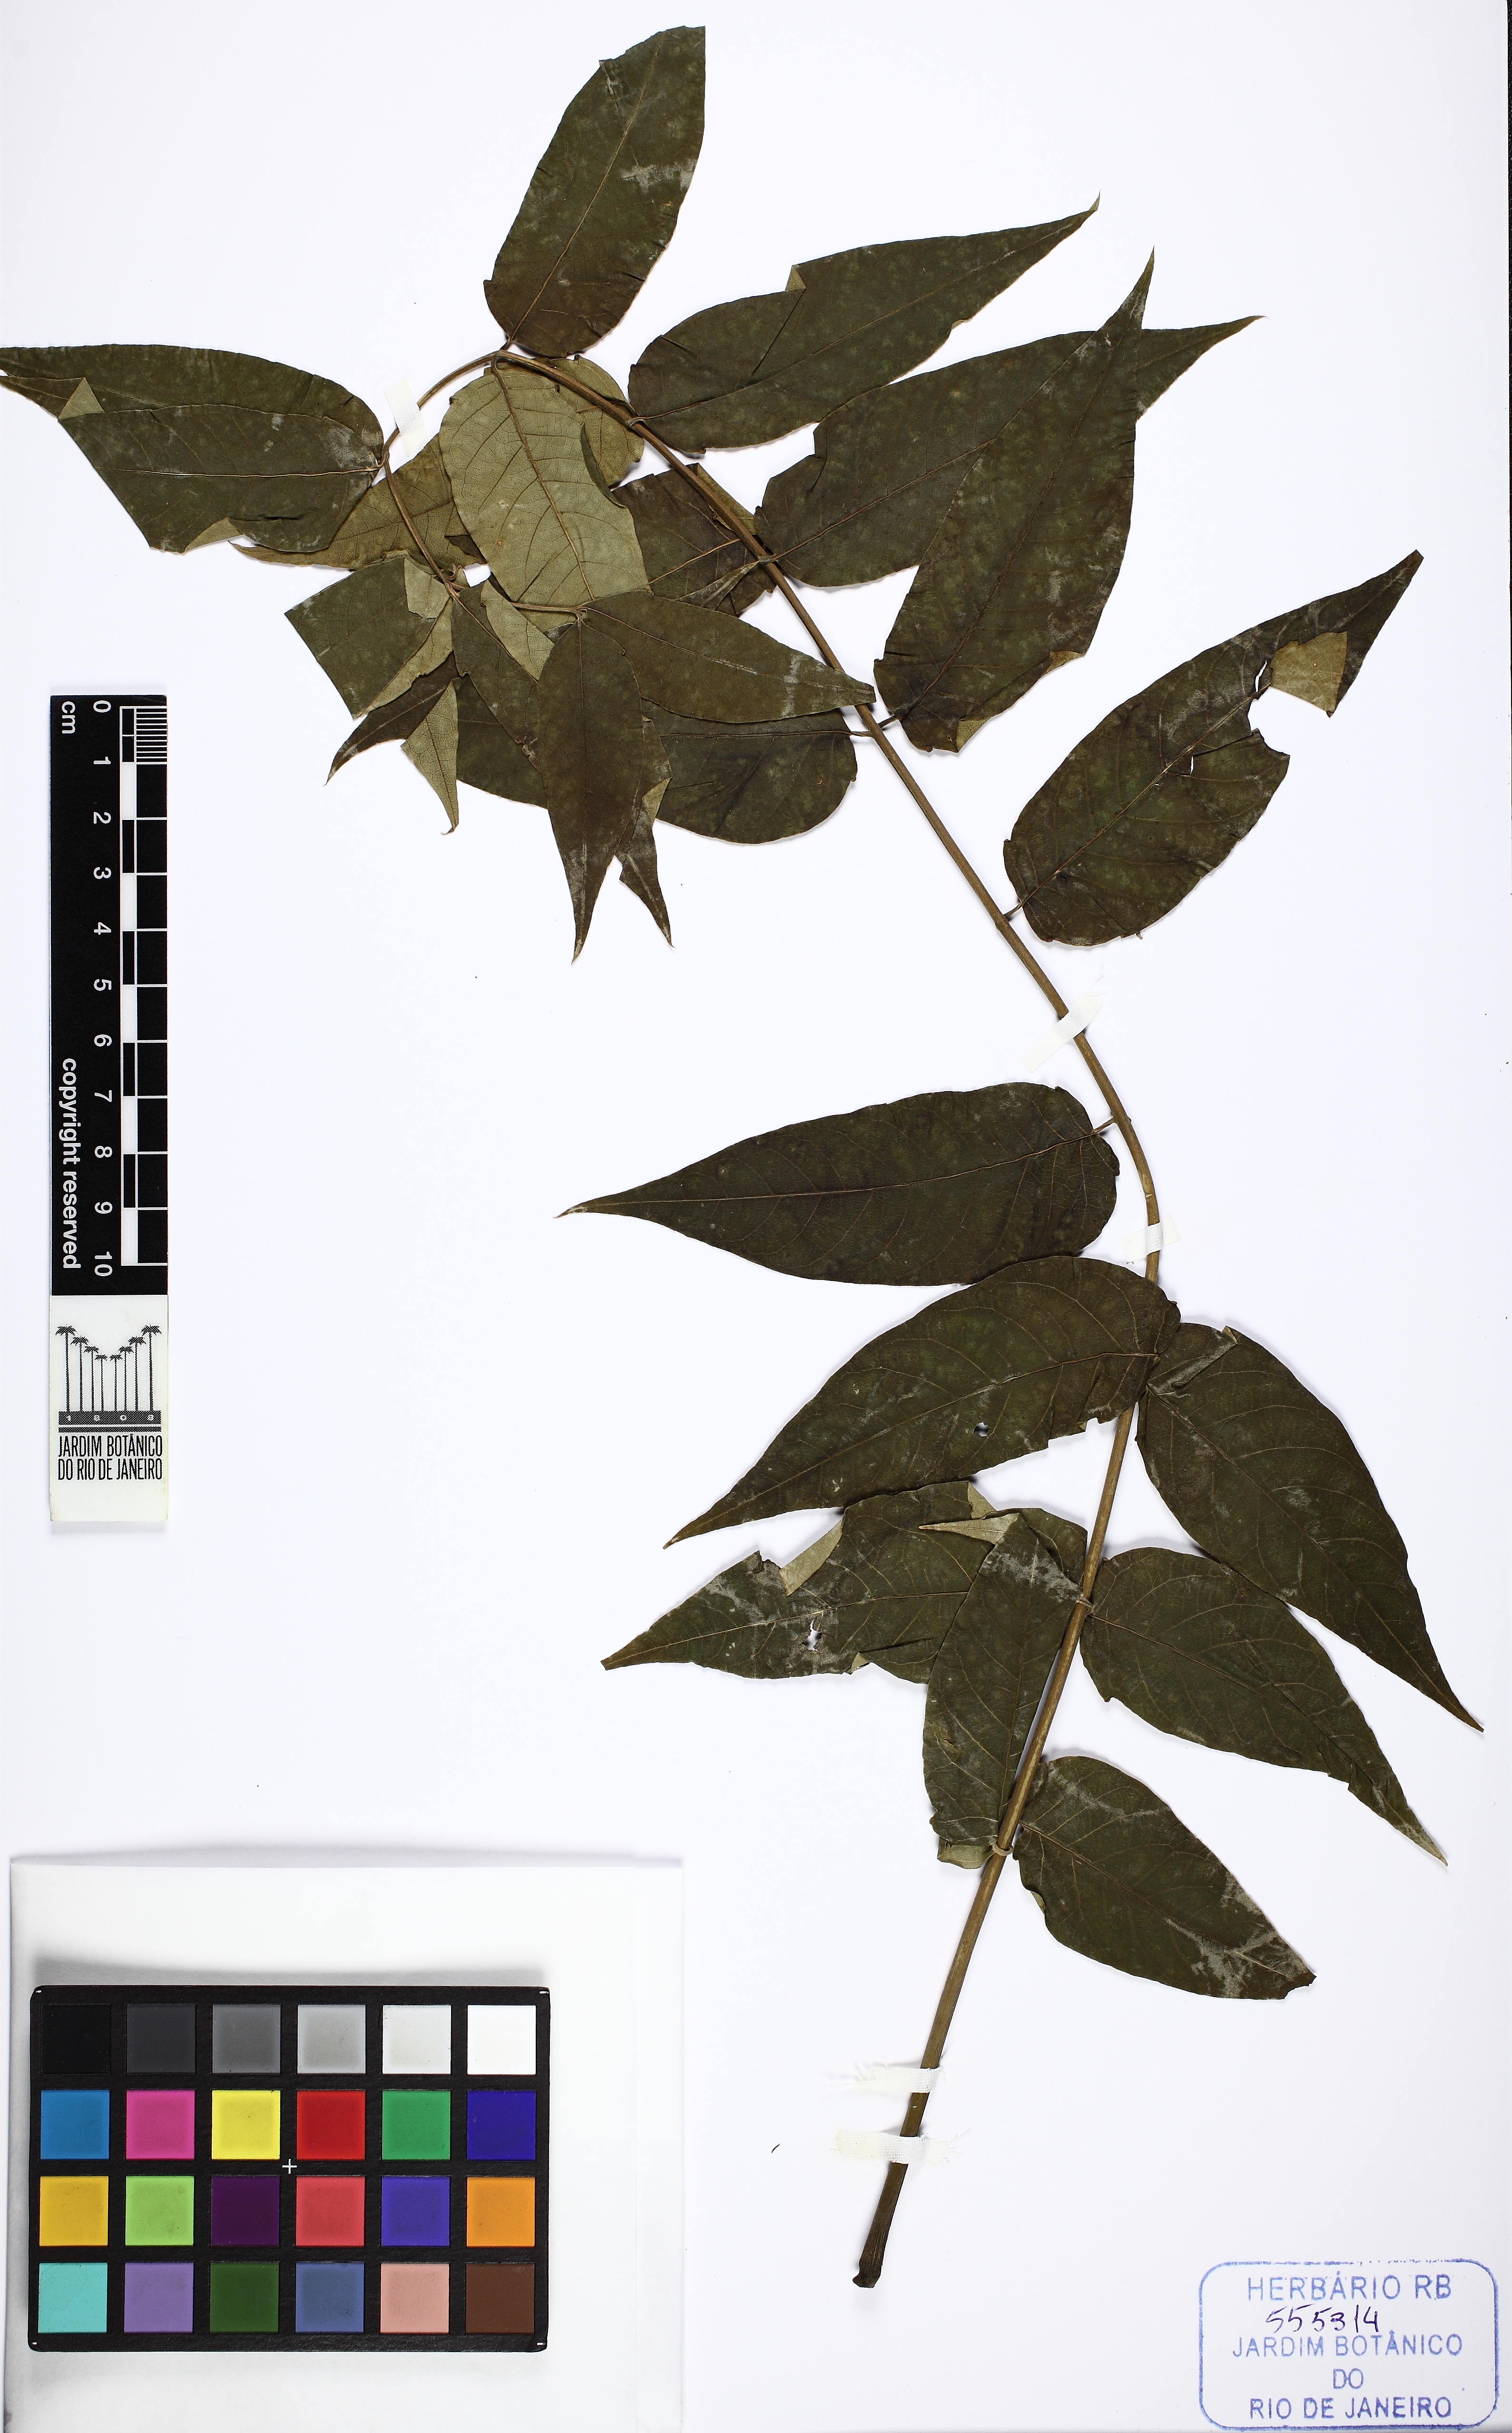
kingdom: Plantae
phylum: Tracheophyta
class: Magnoliopsida
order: Sapindales
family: Simaroubaceae
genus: Ailanthus
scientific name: Ailanthus altissima
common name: Tree-of-heaven
